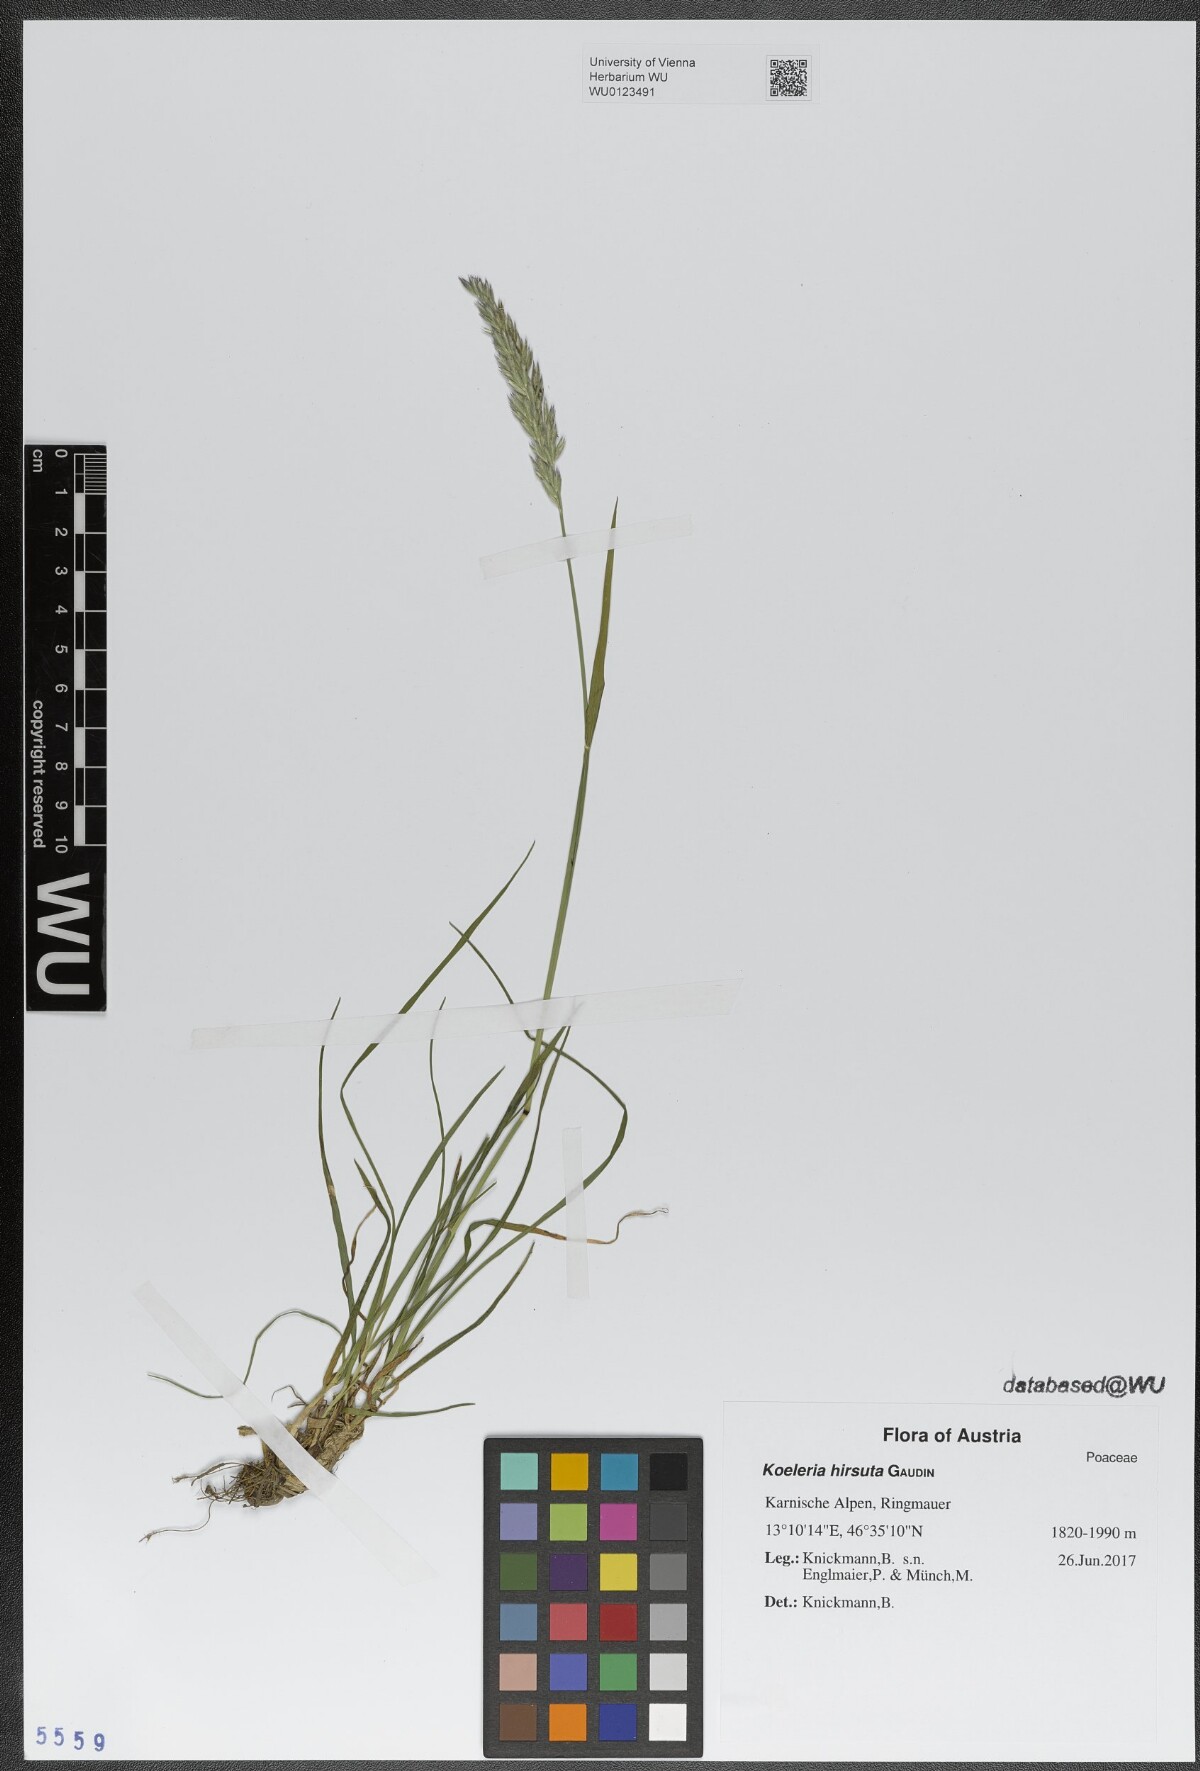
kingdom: Plantae
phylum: Tracheophyta
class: Liliopsida
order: Poales
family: Poaceae
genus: Koeleria
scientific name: Koeleria hirsuta
